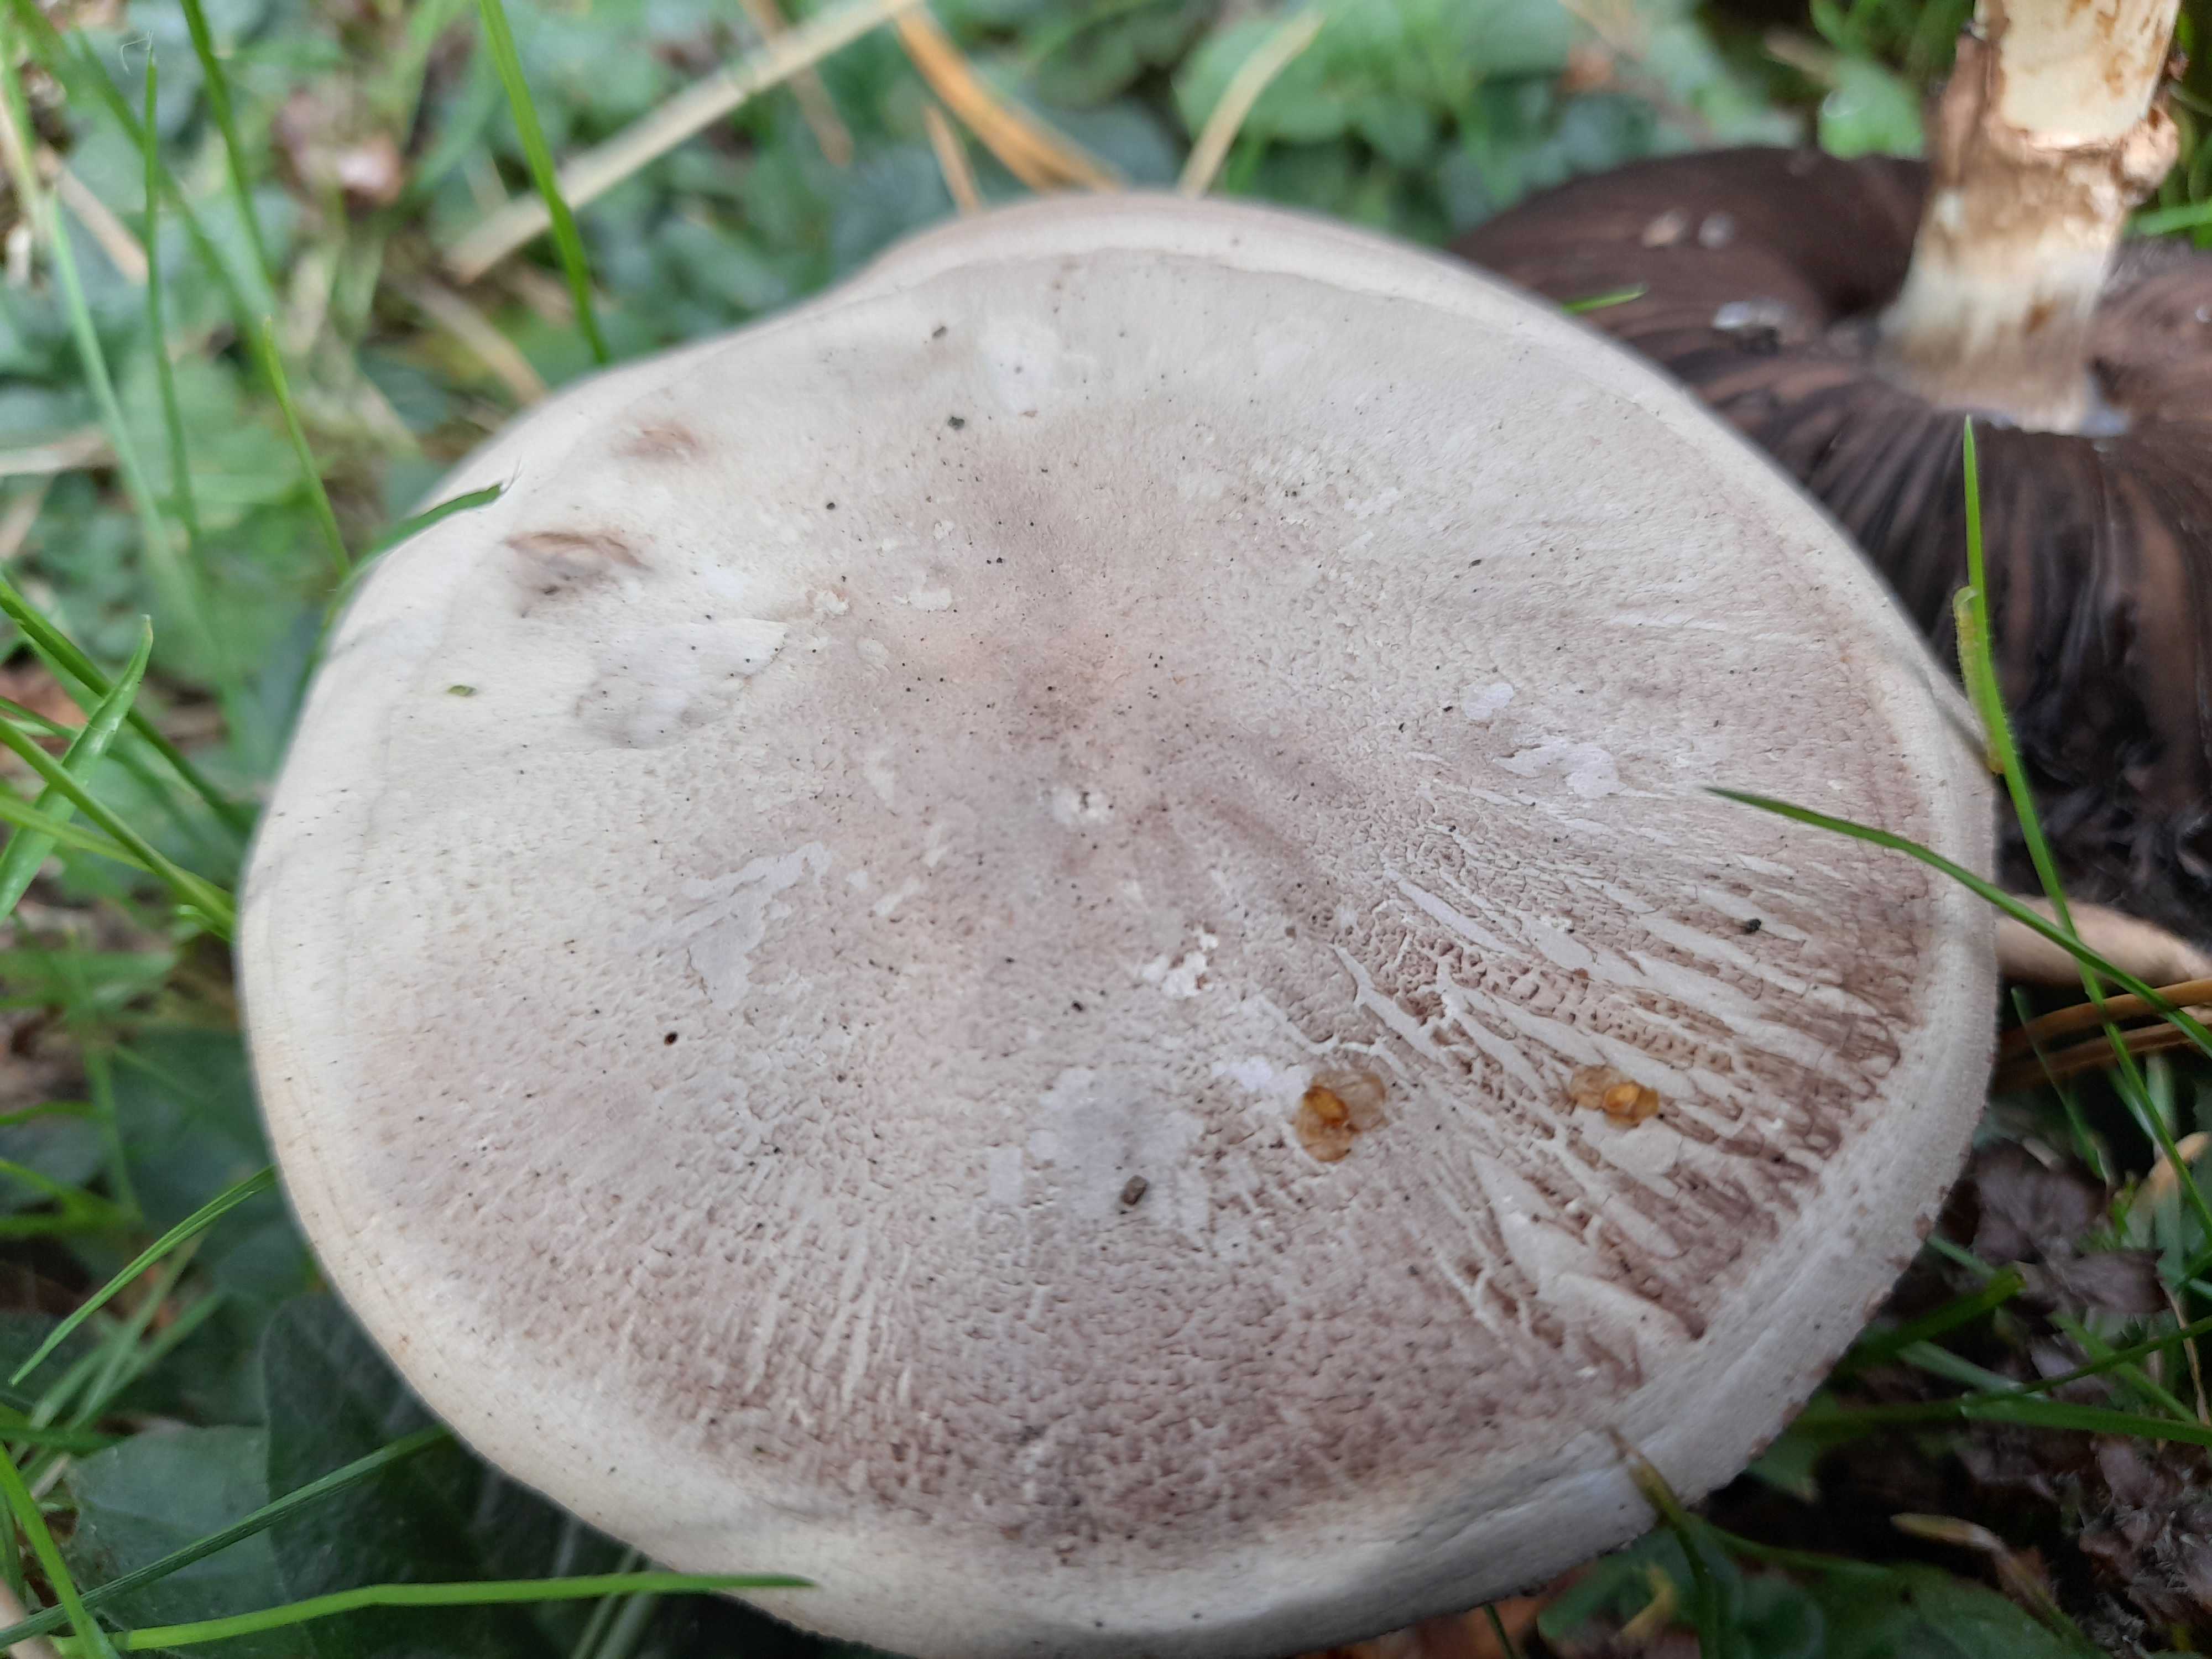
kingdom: Fungi
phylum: Basidiomycota
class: Agaricomycetes
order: Agaricales
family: Agaricaceae
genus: Agaricus
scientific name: Agaricus xanthodermus
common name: karbol-champignon
